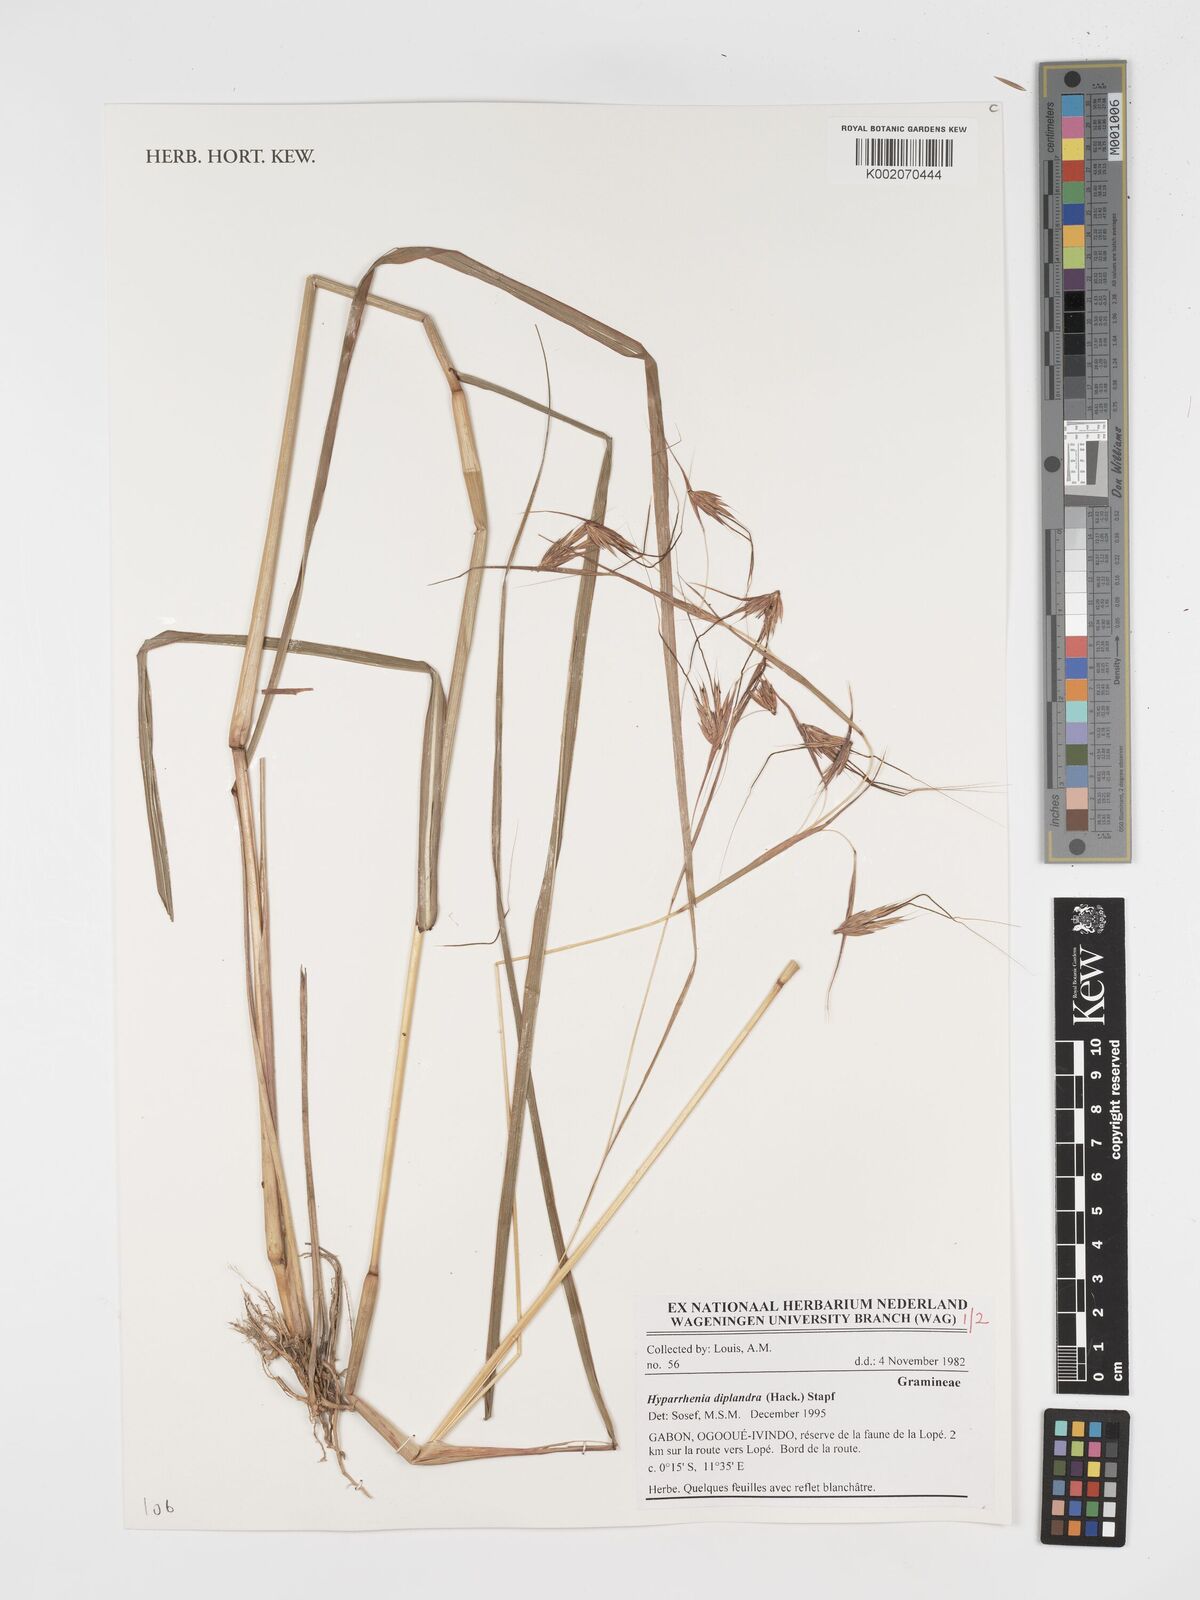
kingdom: Plantae
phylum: Tracheophyta
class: Liliopsida
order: Poales
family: Poaceae
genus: Hyparrhenia
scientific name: Hyparrhenia diplandra
